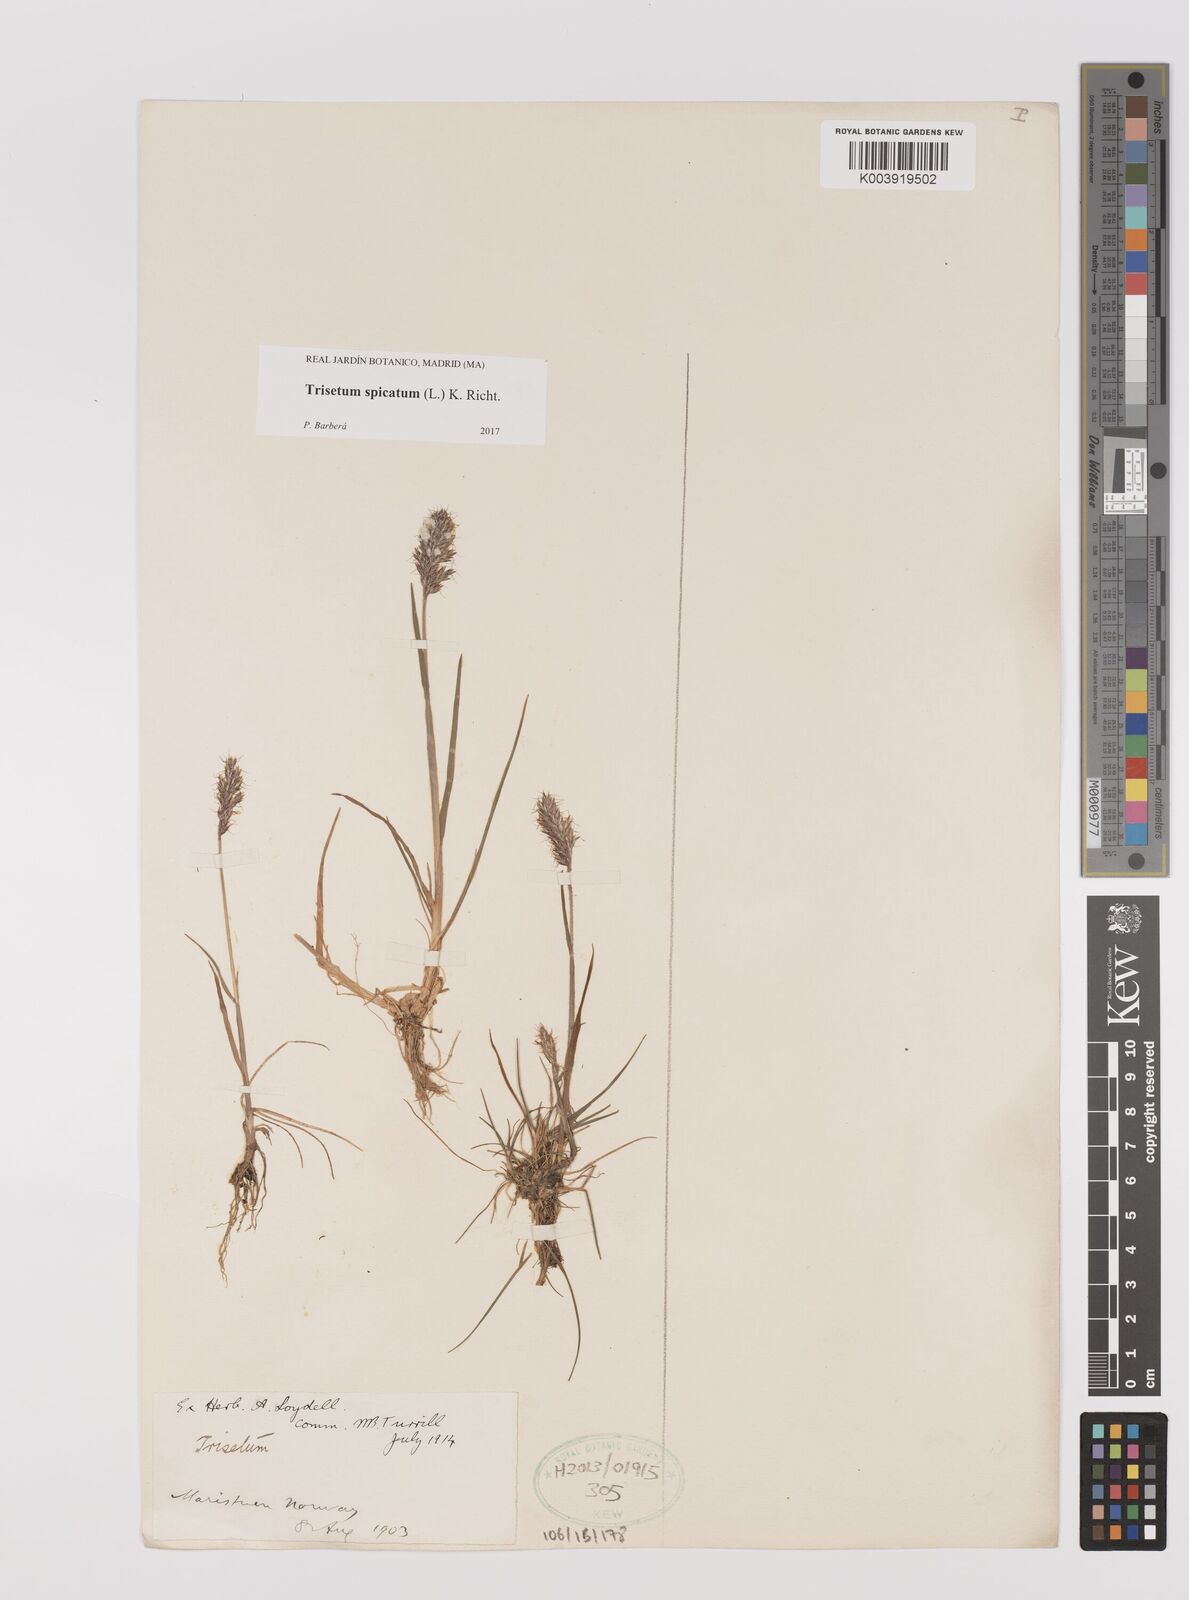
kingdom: Plantae
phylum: Tracheophyta
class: Liliopsida
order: Poales
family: Poaceae
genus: Koeleria
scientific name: Koeleria spicata
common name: Mountain trisetum
